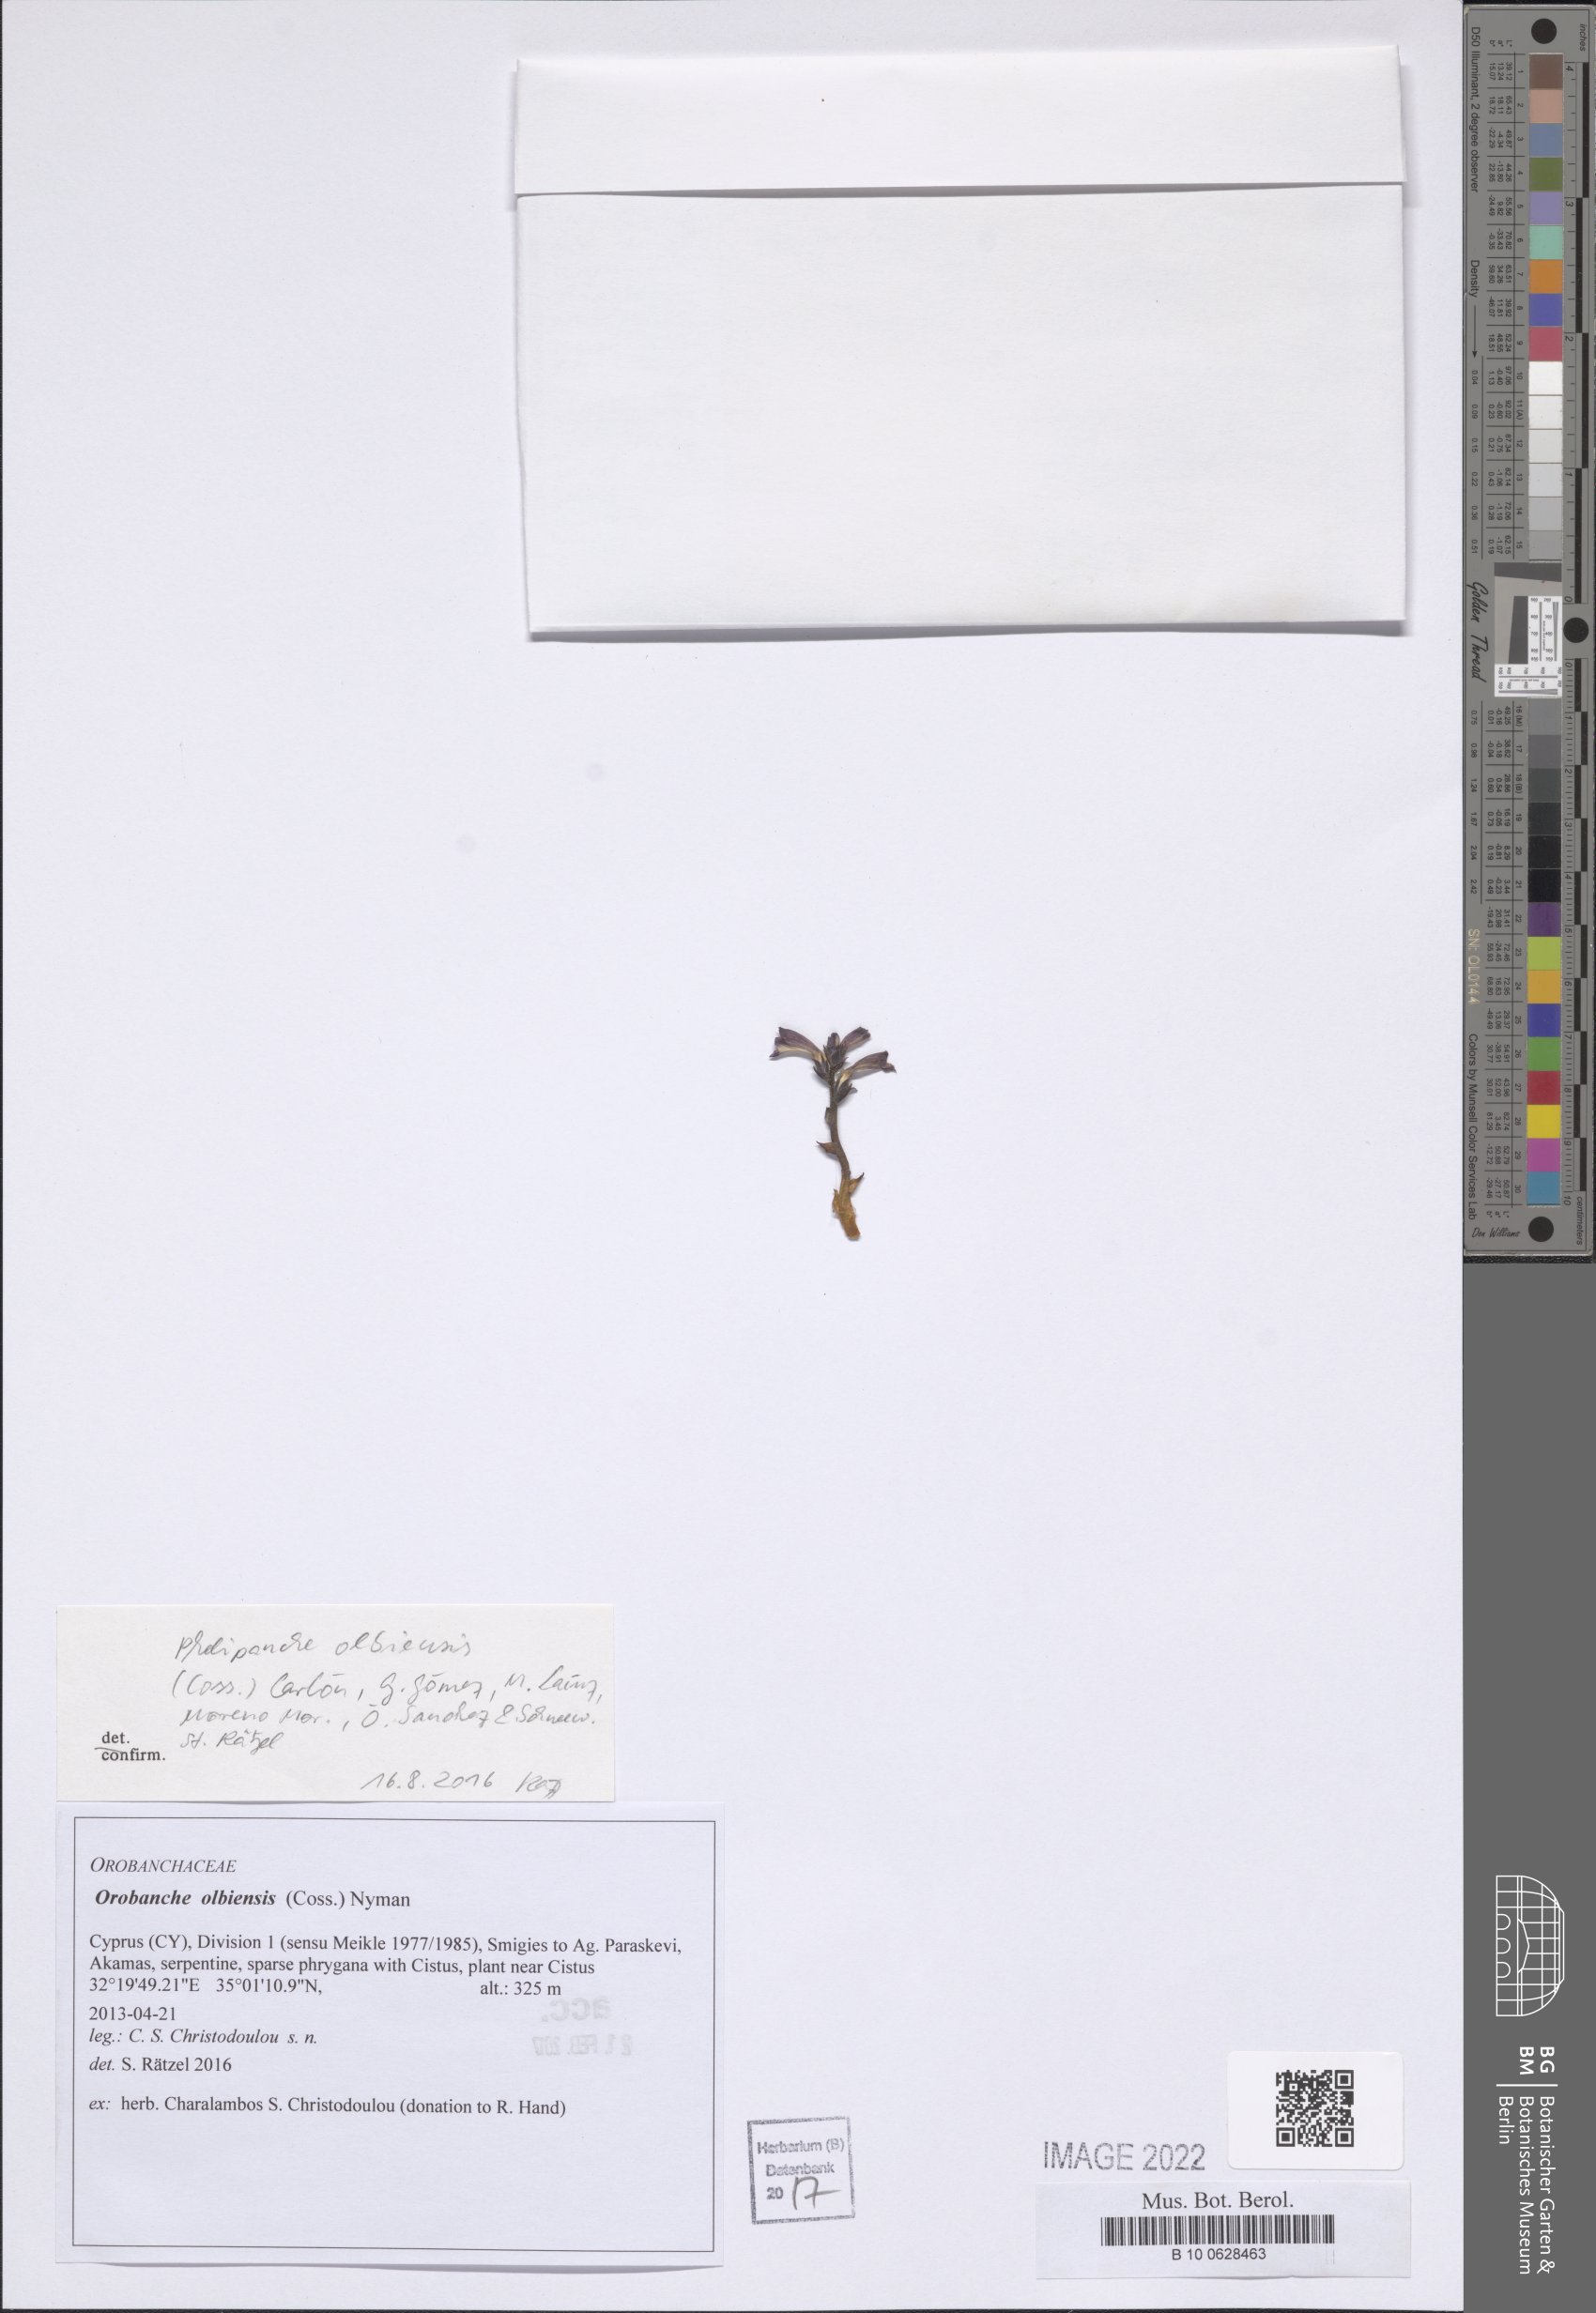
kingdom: Plantae
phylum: Tracheophyta
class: Magnoliopsida
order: Lamiales
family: Orobanchaceae
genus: Phelipanche
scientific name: Phelipanche olbiensis
